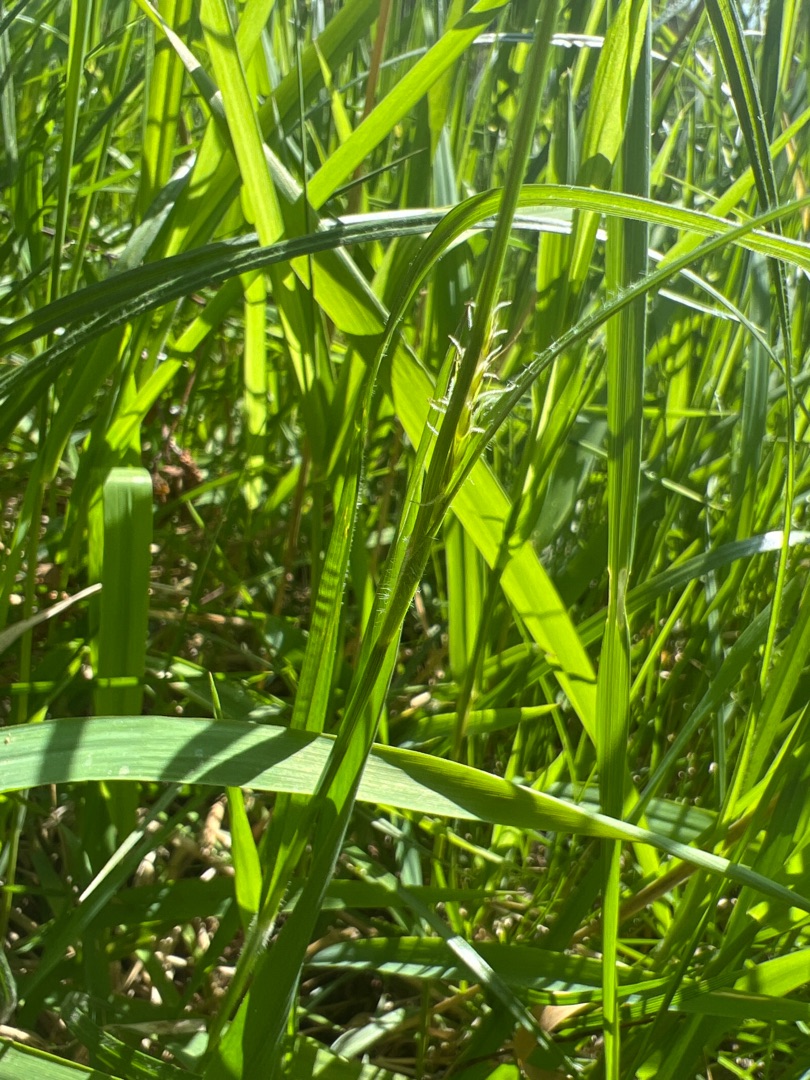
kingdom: Plantae
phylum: Tracheophyta
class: Liliopsida
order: Poales
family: Cyperaceae
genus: Carex
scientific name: Carex hirta
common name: Håret star
